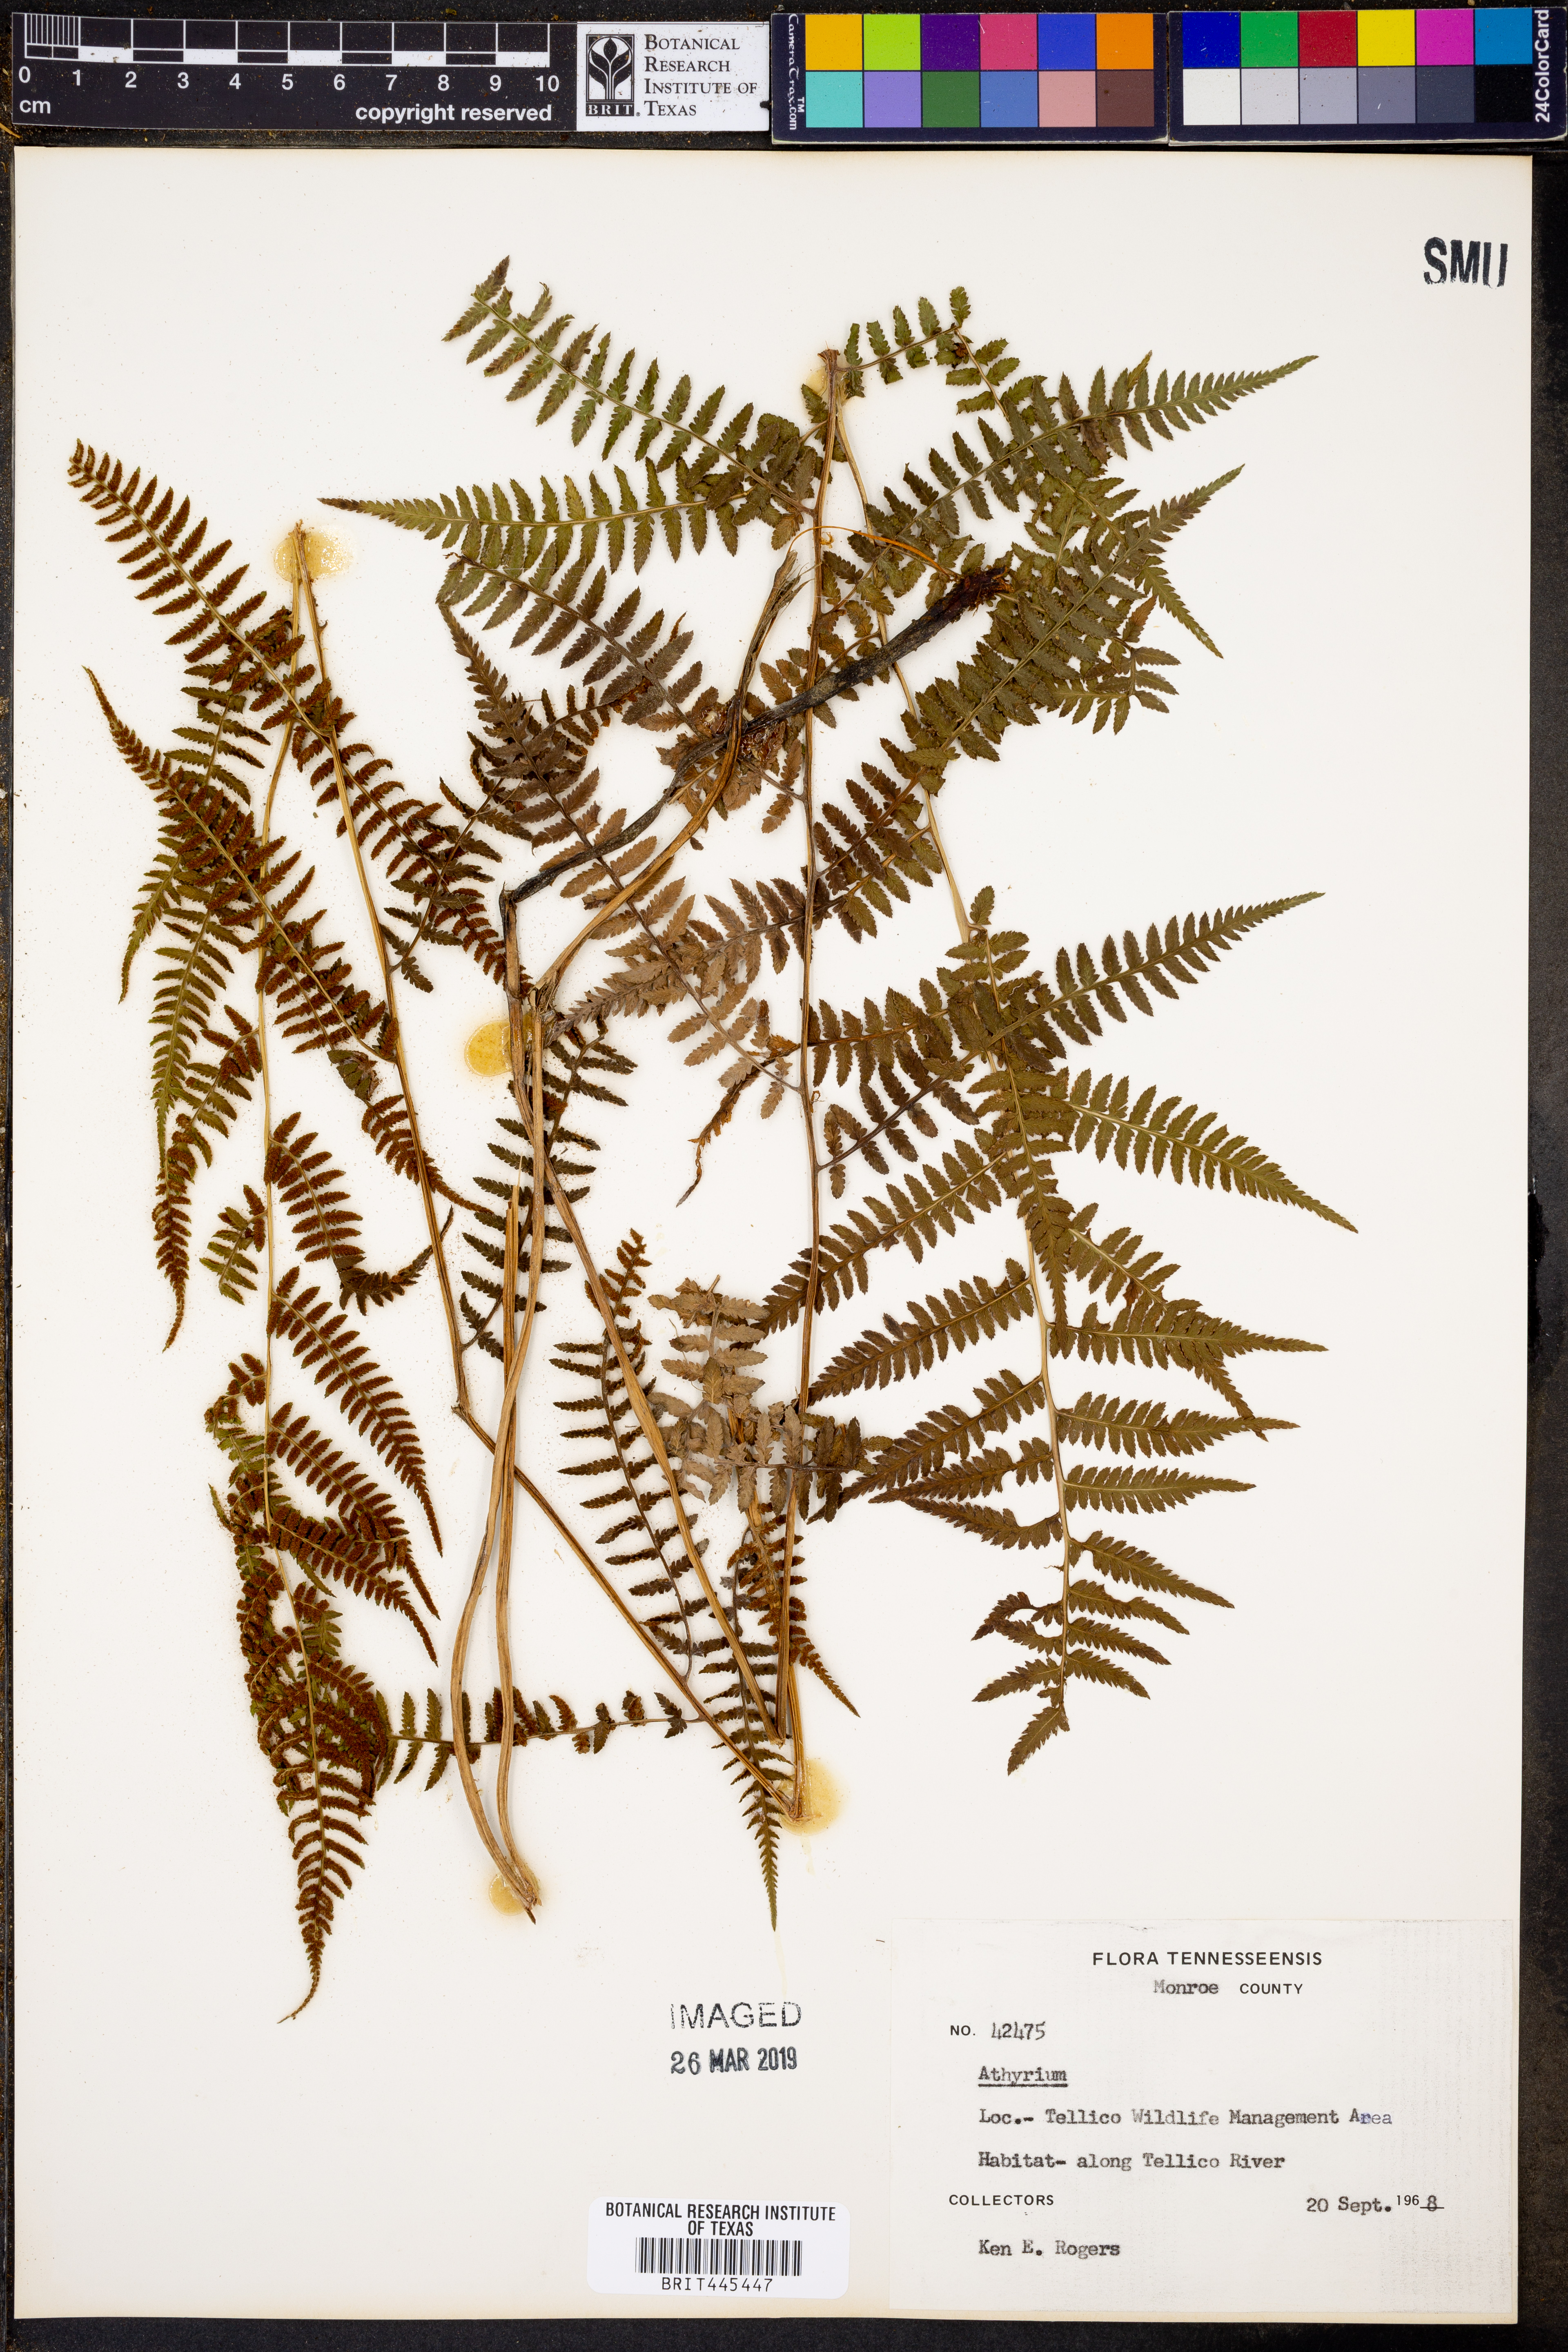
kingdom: Plantae
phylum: Tracheophyta
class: Polypodiopsida
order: Polypodiales
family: Athyriaceae
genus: Athyrium
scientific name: Athyrium
